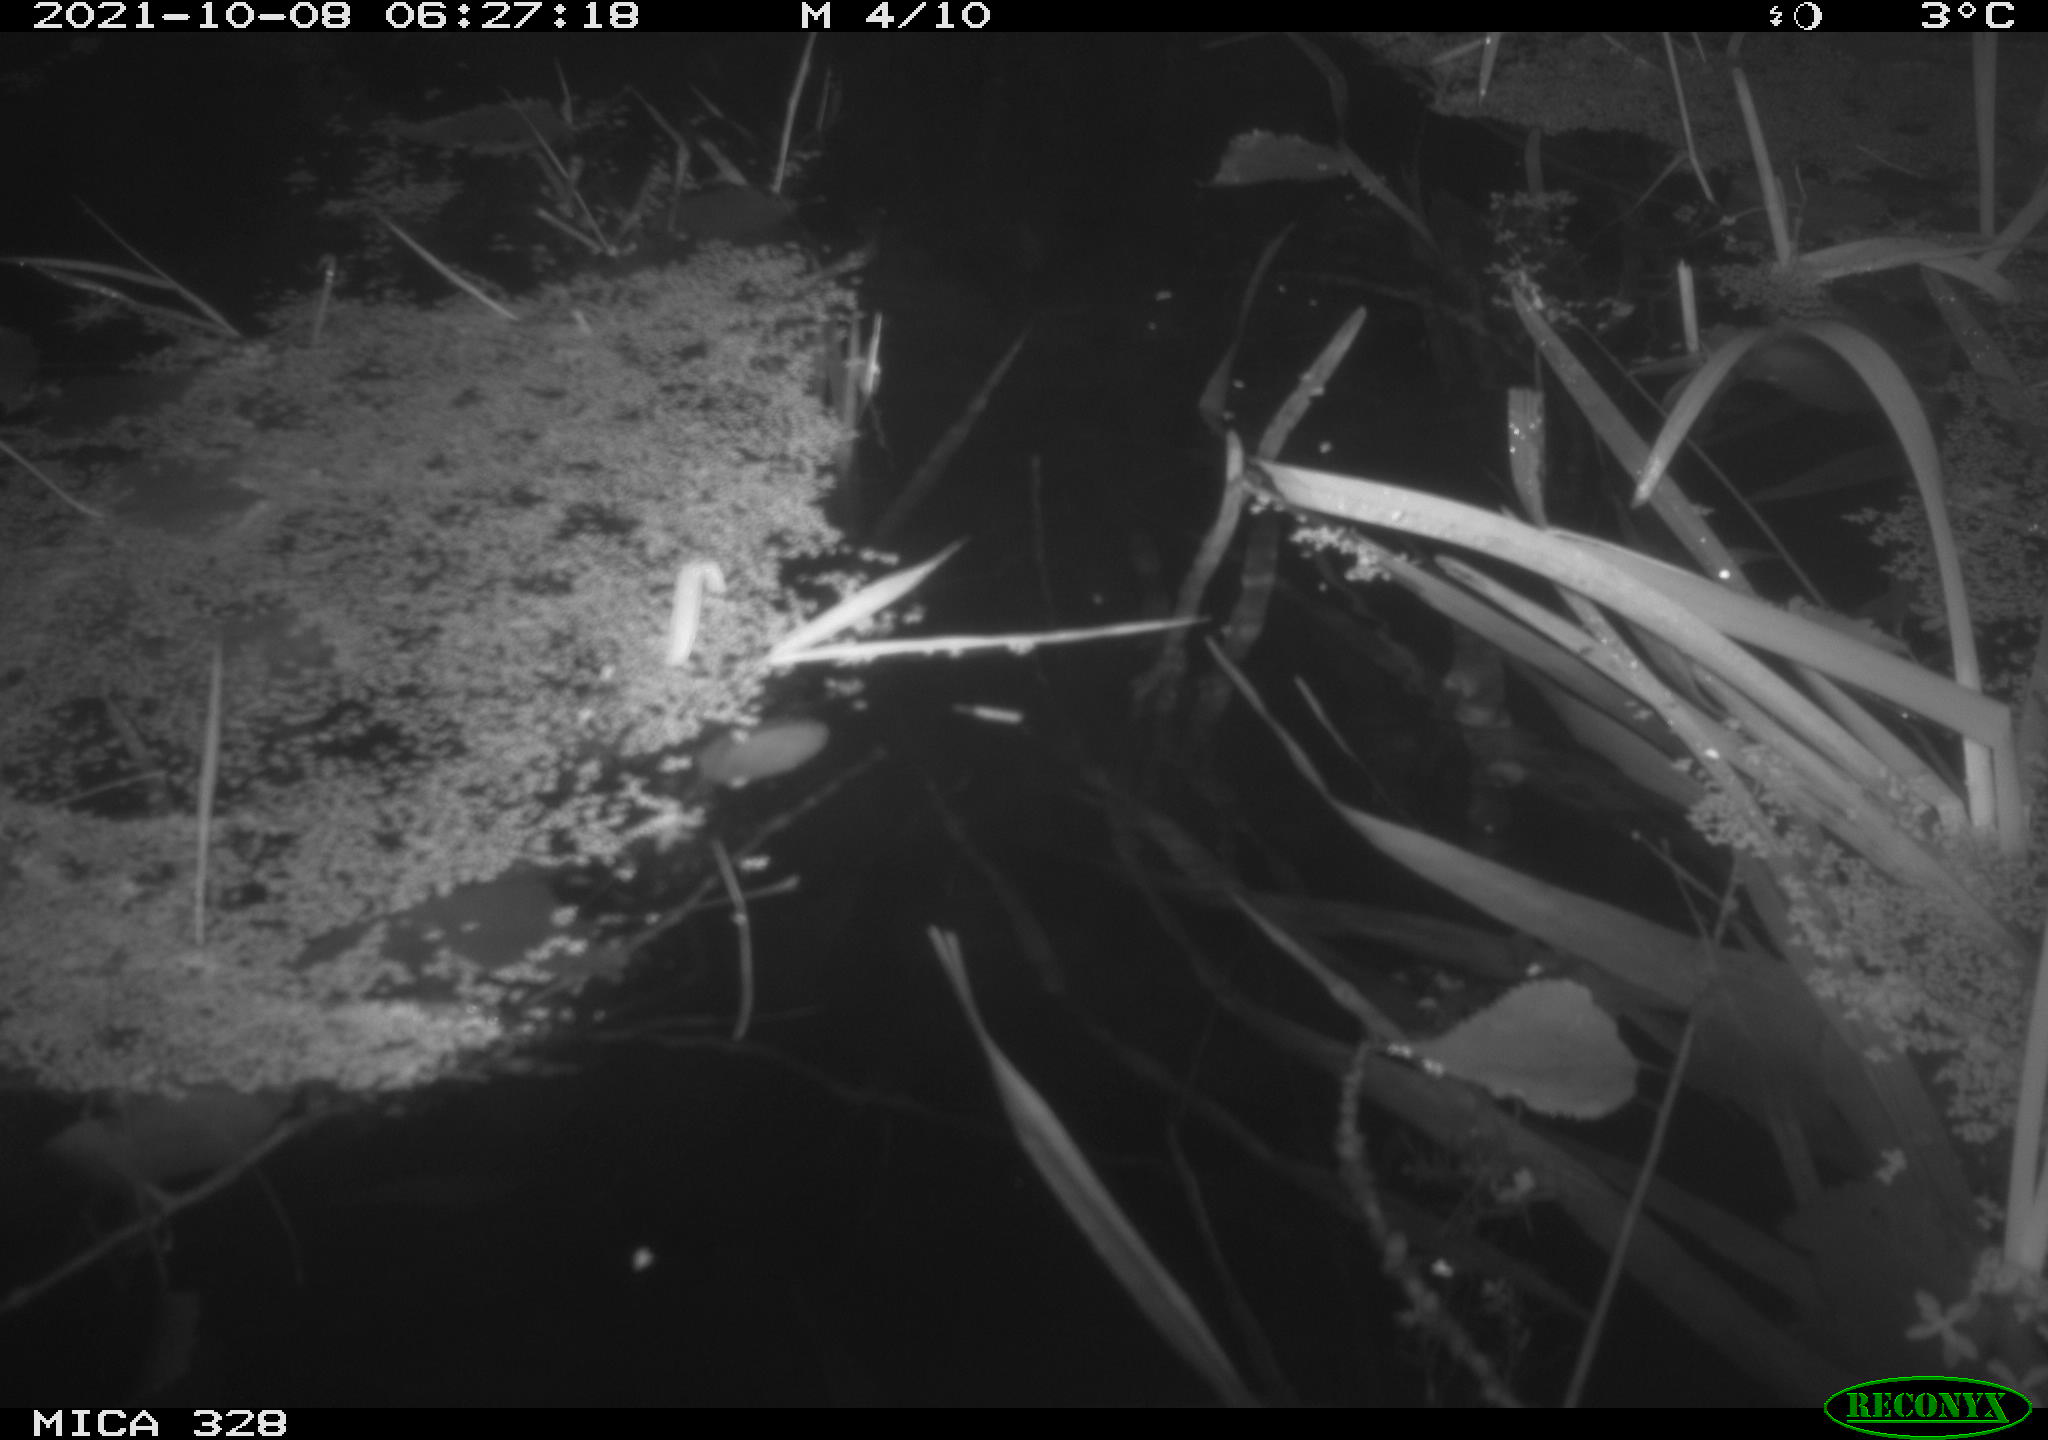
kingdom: Animalia
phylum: Chordata
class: Mammalia
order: Rodentia
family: Cricetidae
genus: Ondatra
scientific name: Ondatra zibethicus
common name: Muskrat
